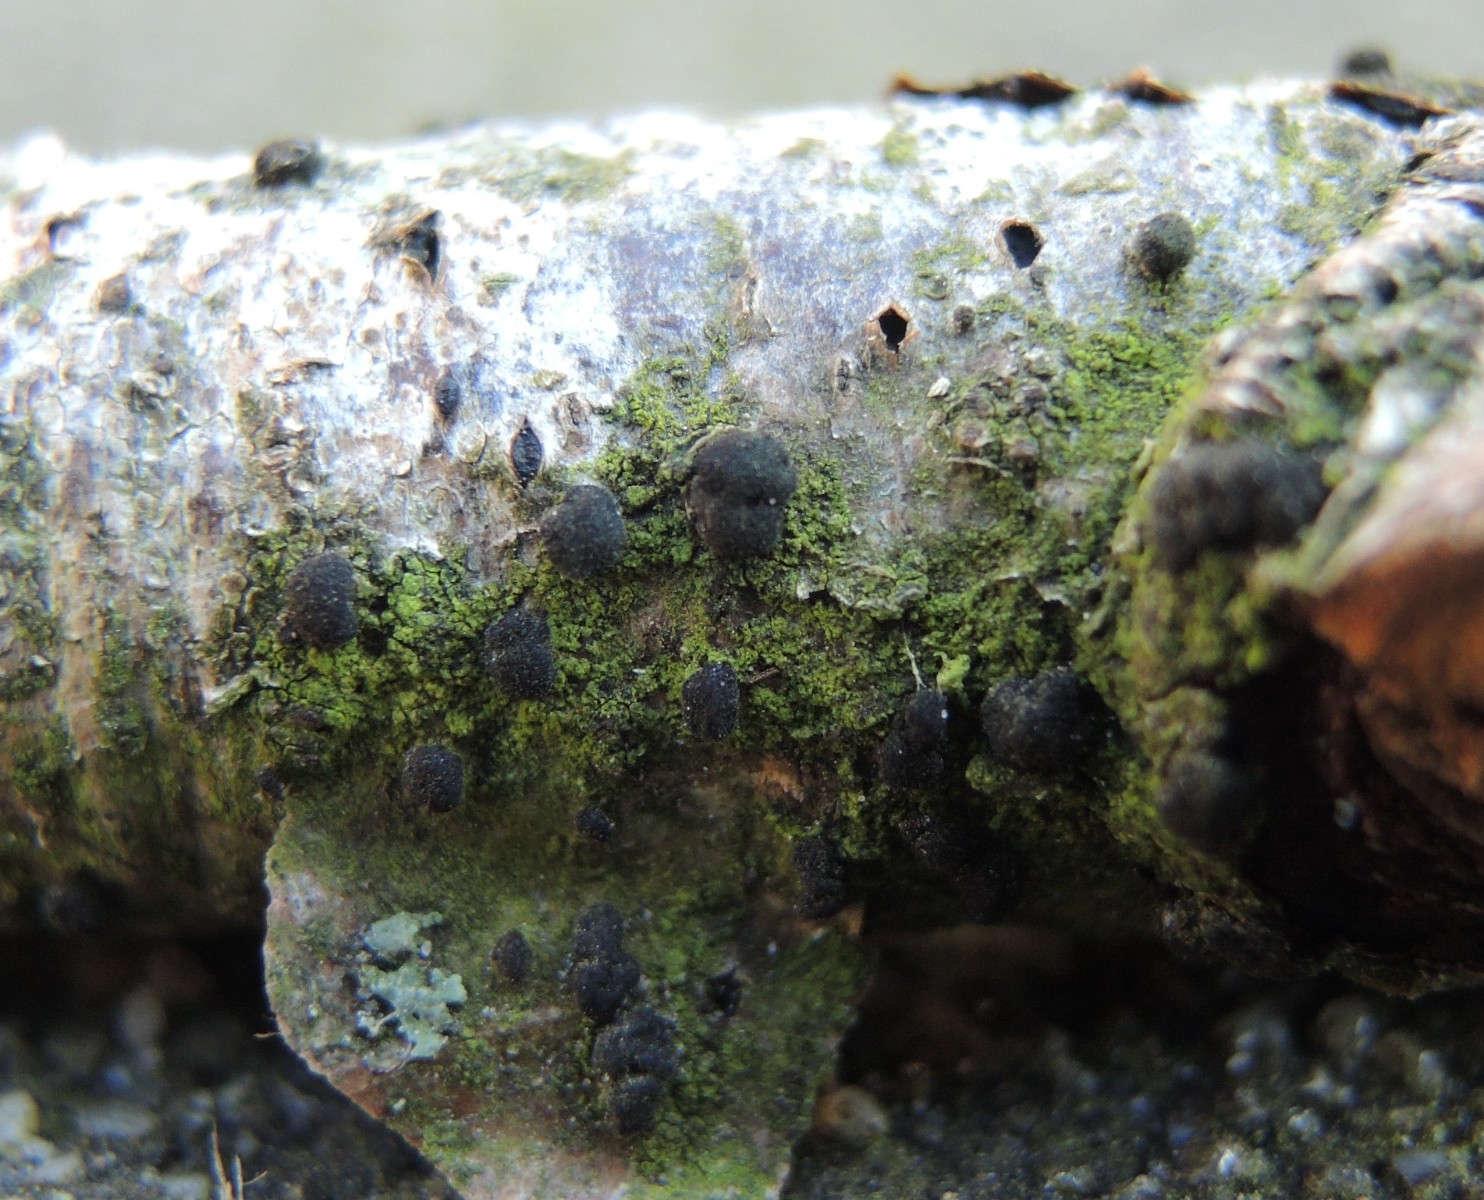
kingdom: Fungi
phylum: Ascomycota
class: Dothideomycetes
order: Pleosporales
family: Massarinaceae
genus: Helminthosporium
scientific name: Helminthosporium oligosporum
